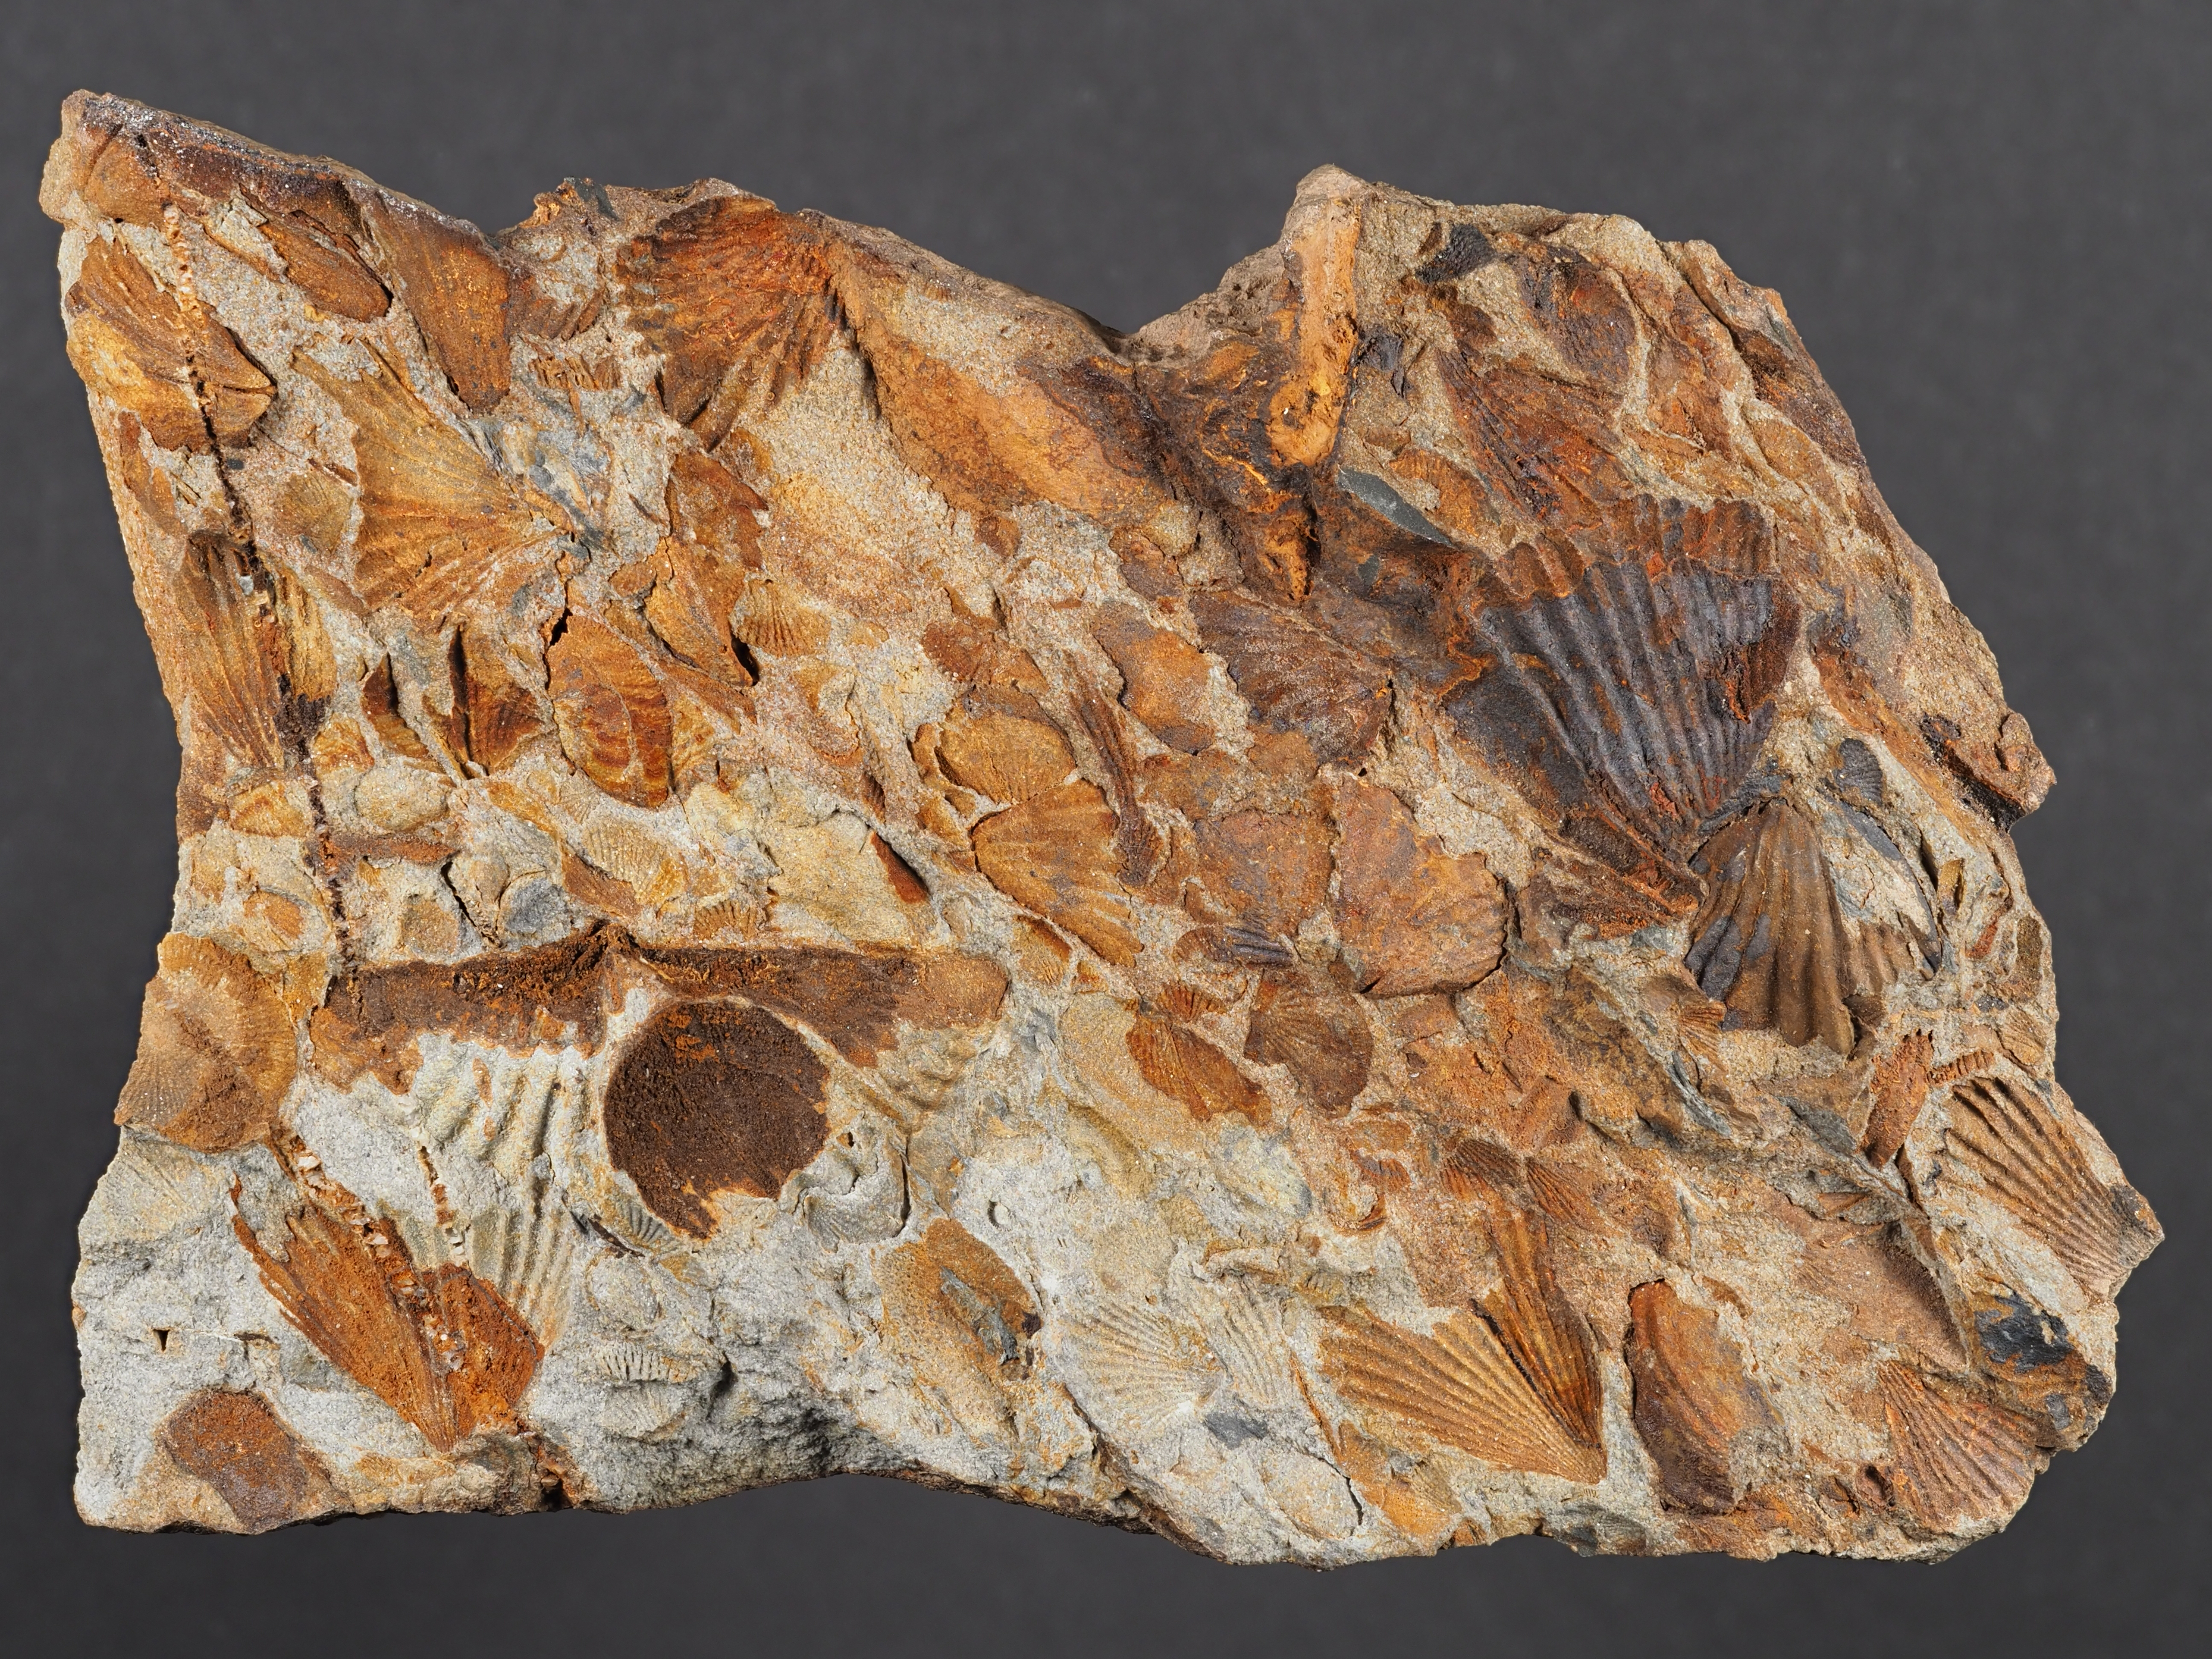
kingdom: Animalia
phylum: Brachiopoda
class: Rhynchonellata
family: Delthyrididae
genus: Euryspirifer
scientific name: Euryspirifer
